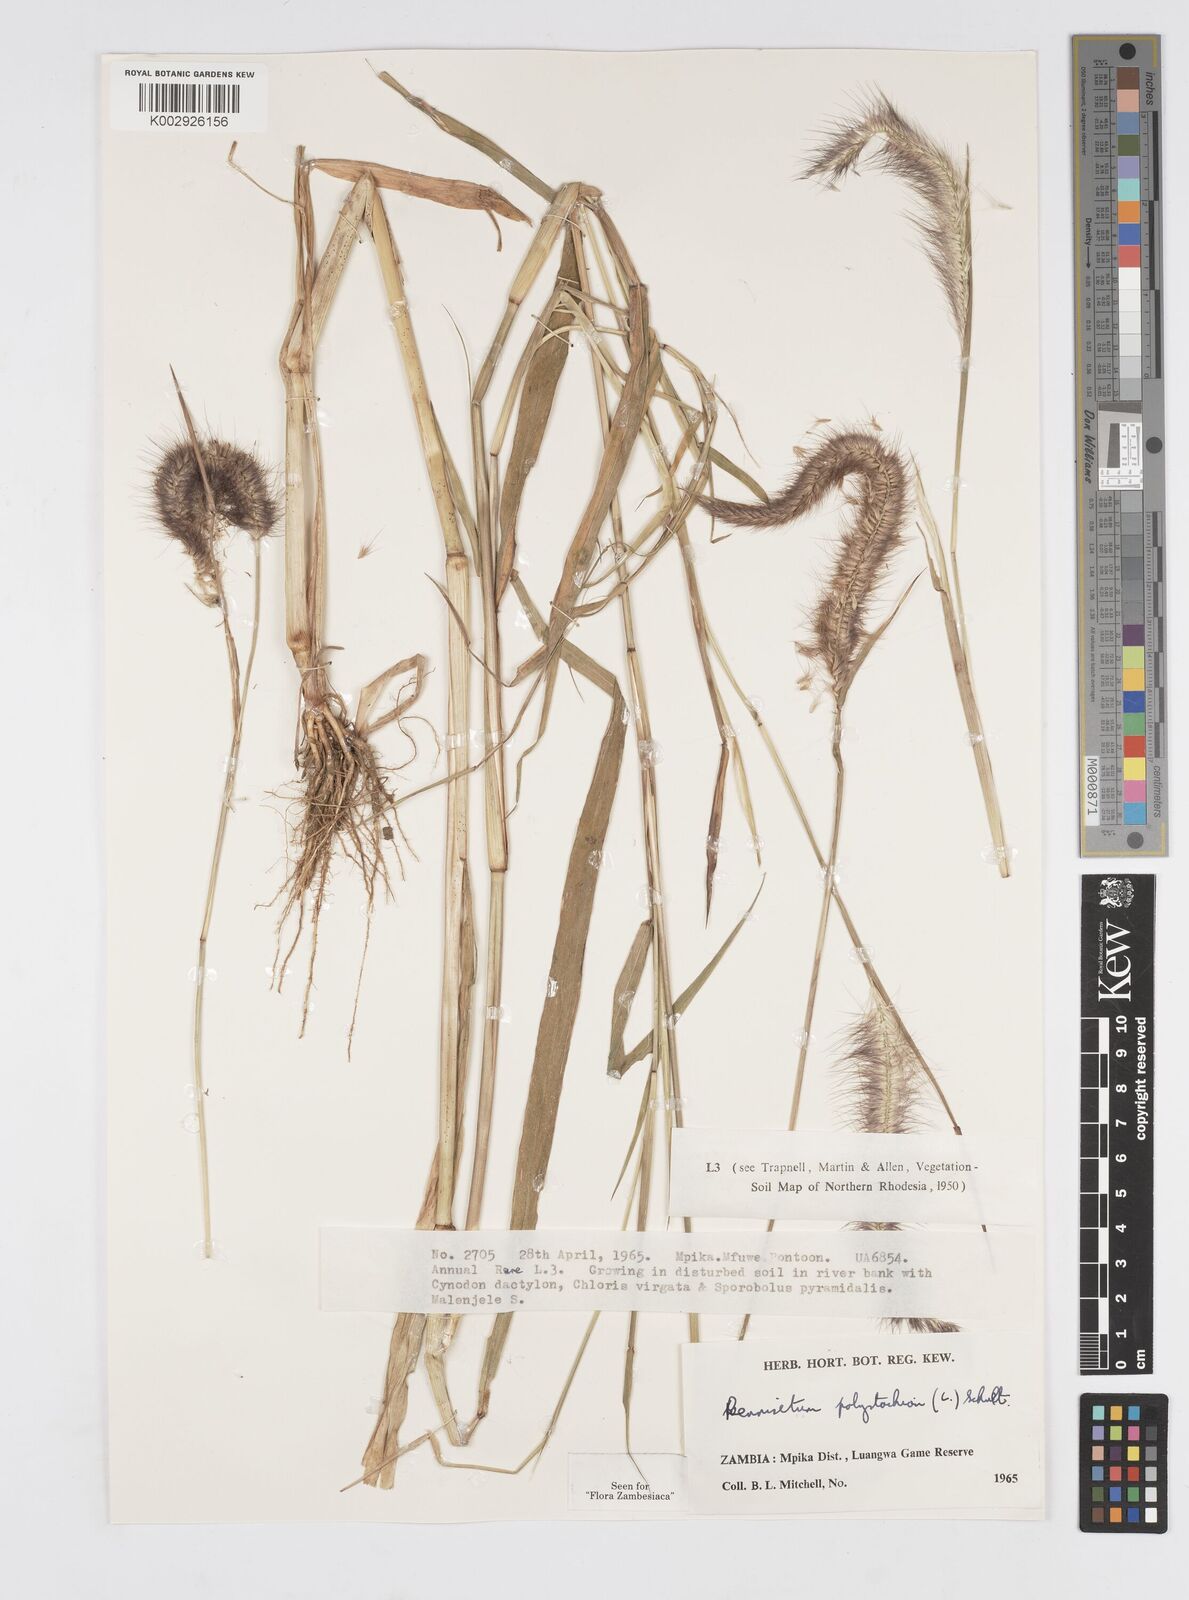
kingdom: Plantae
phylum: Tracheophyta
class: Liliopsida
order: Poales
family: Poaceae
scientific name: Poaceae
